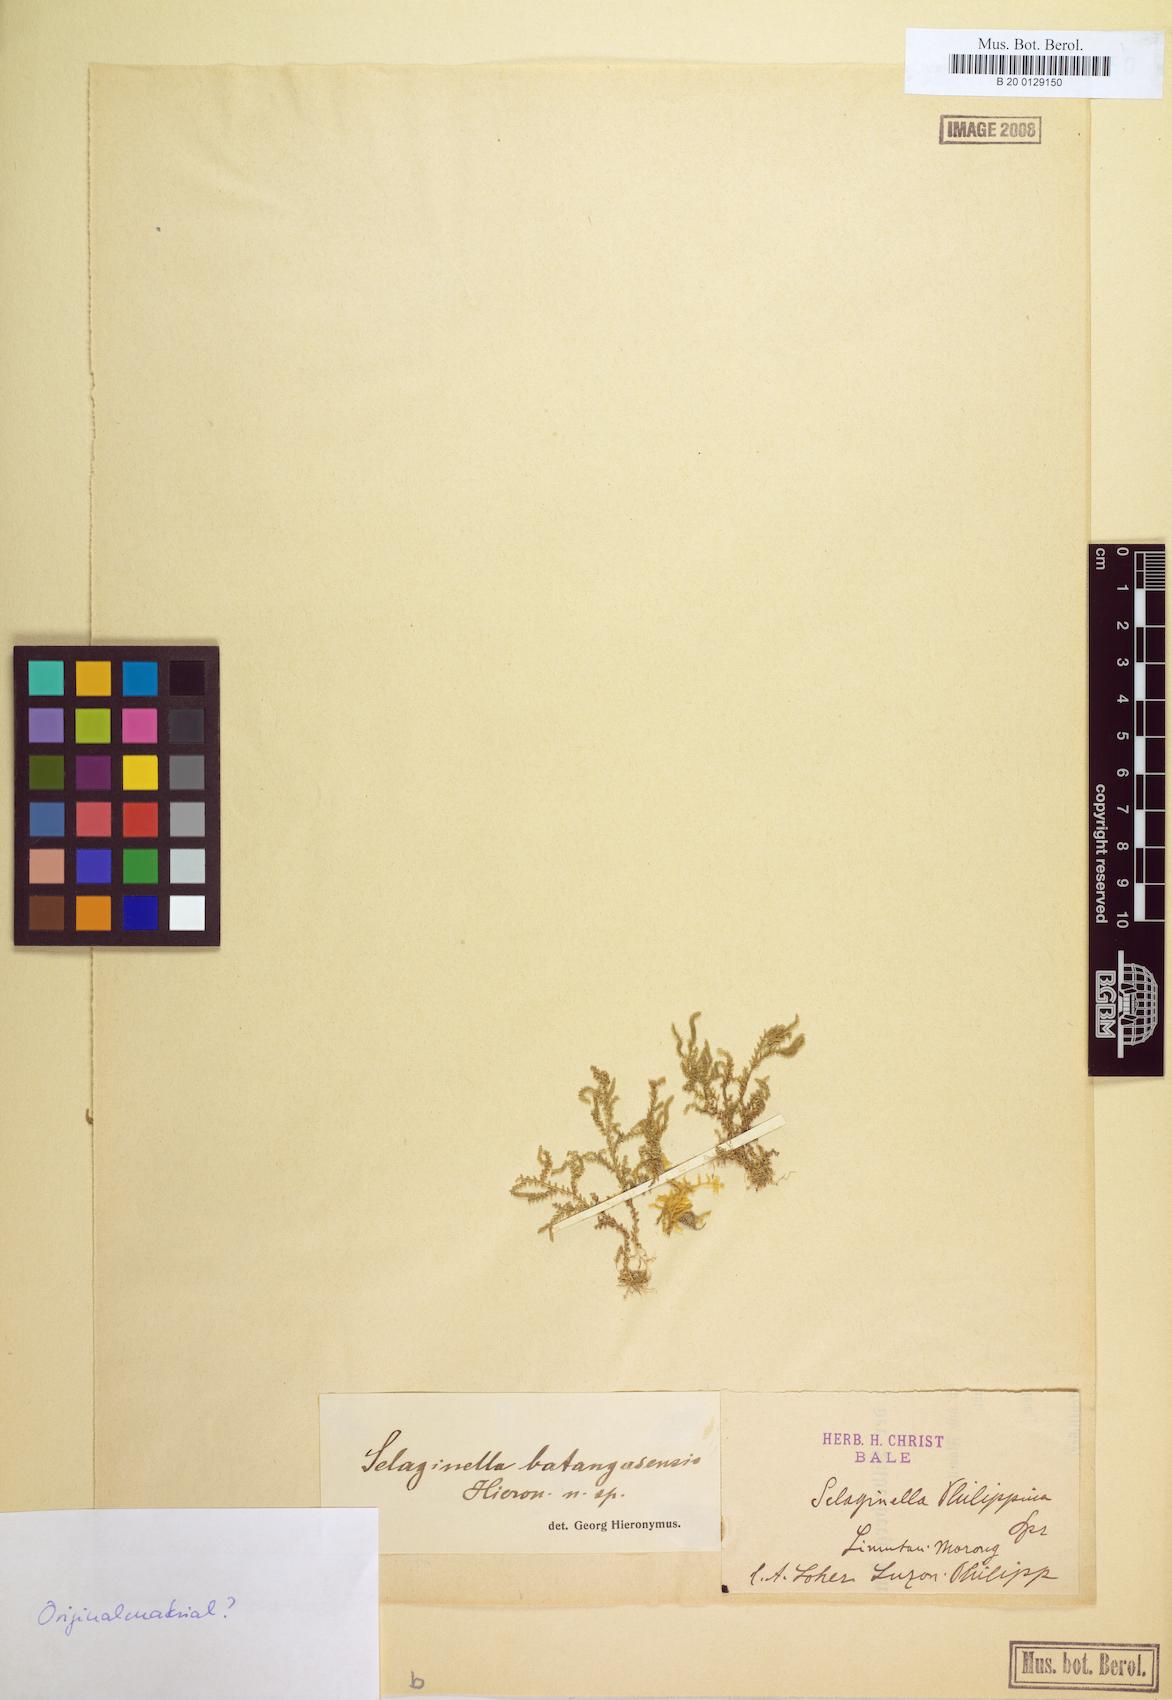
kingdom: Plantae
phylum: Tracheophyta
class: Lycopodiopsida
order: Selaginellales
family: Selaginellaceae
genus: Selaginella
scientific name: Selaginella philippsiana
